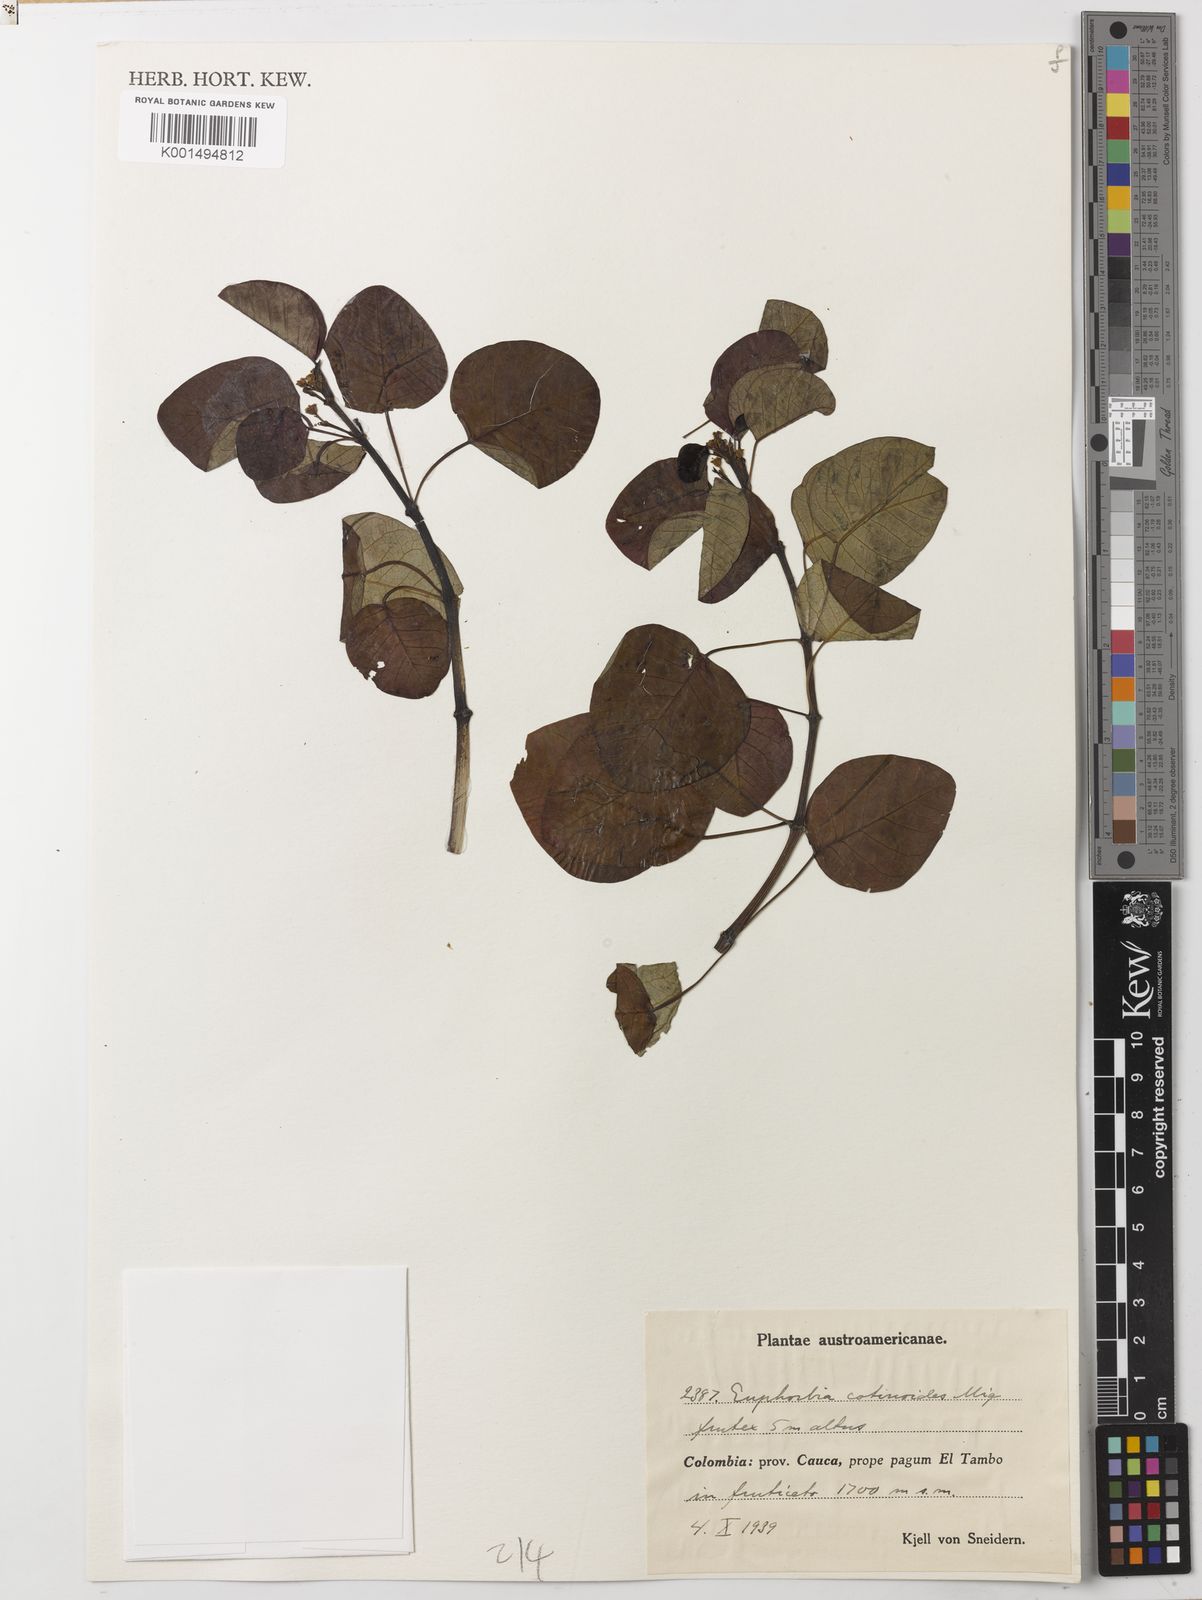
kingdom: Plantae
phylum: Tracheophyta
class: Magnoliopsida
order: Malpighiales
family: Euphorbiaceae
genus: Euphorbia
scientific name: Euphorbia cotinifolia
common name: Tropical smokebush
